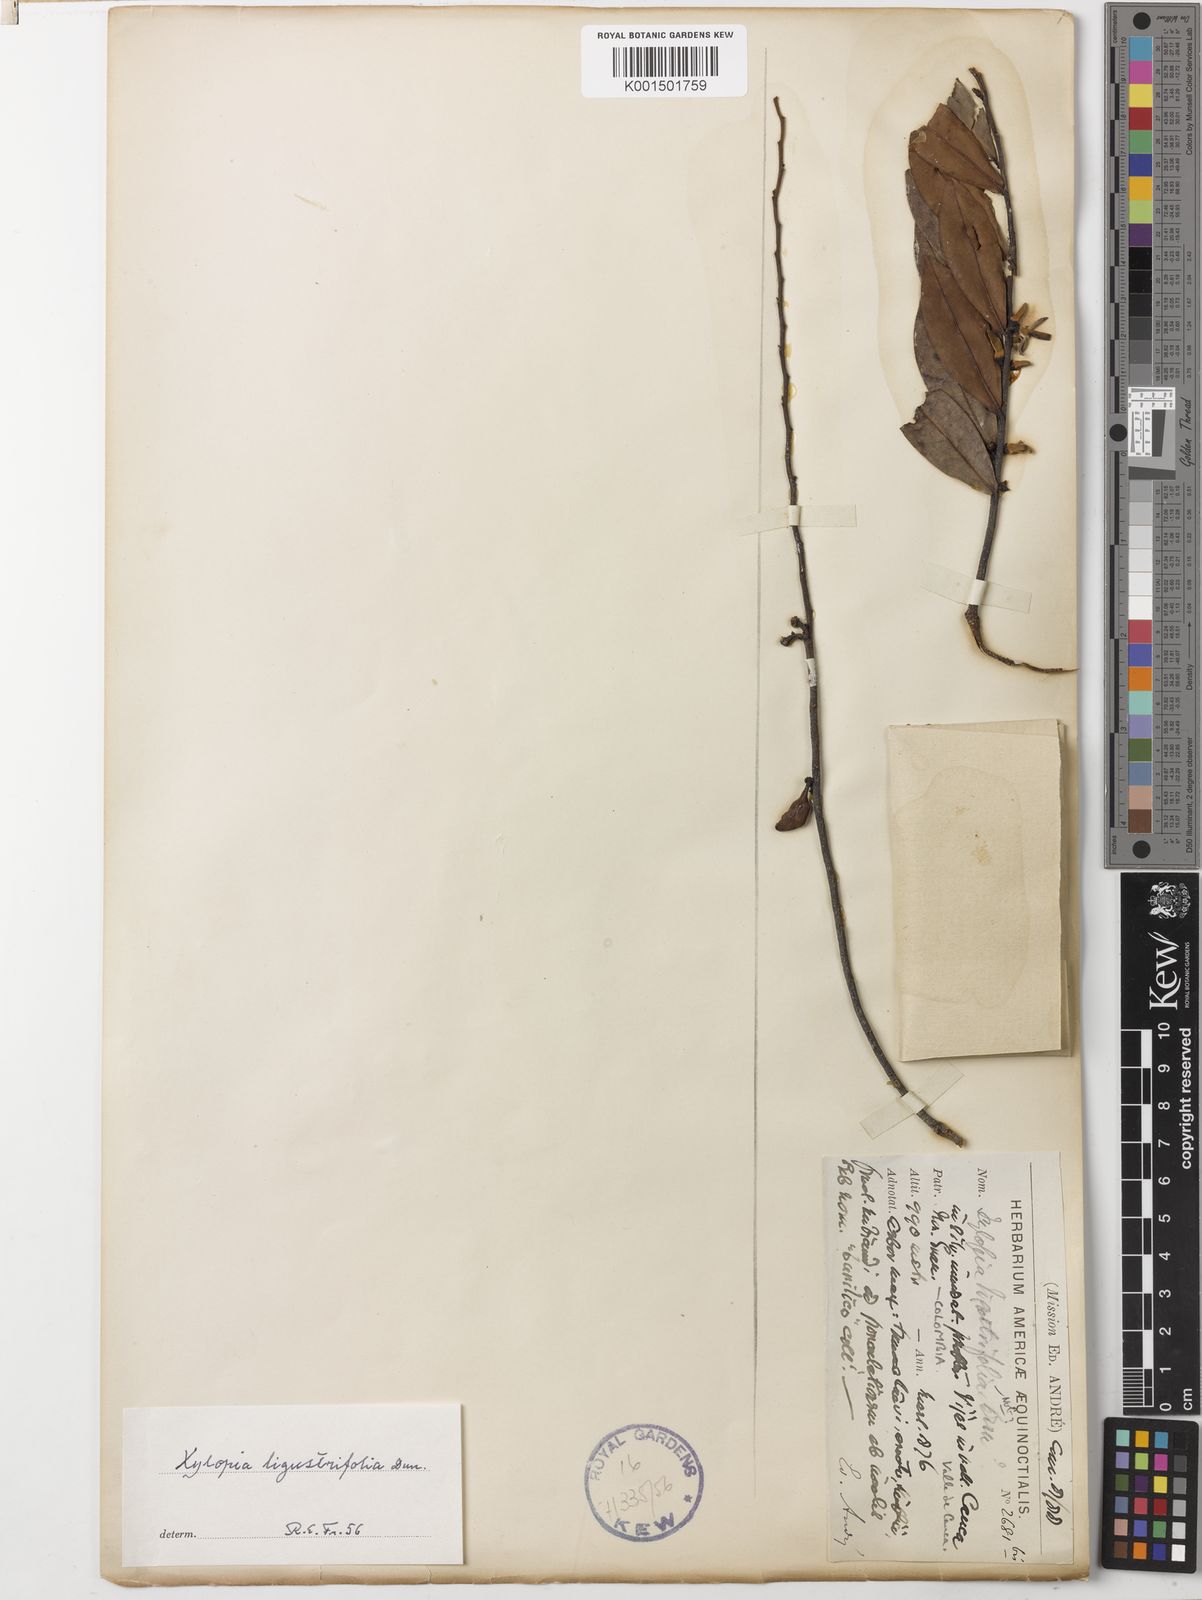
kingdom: Plantae
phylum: Tracheophyta
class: Magnoliopsida
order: Magnoliales
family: Annonaceae
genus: Xylopia
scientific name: Xylopia ligustrifolia
